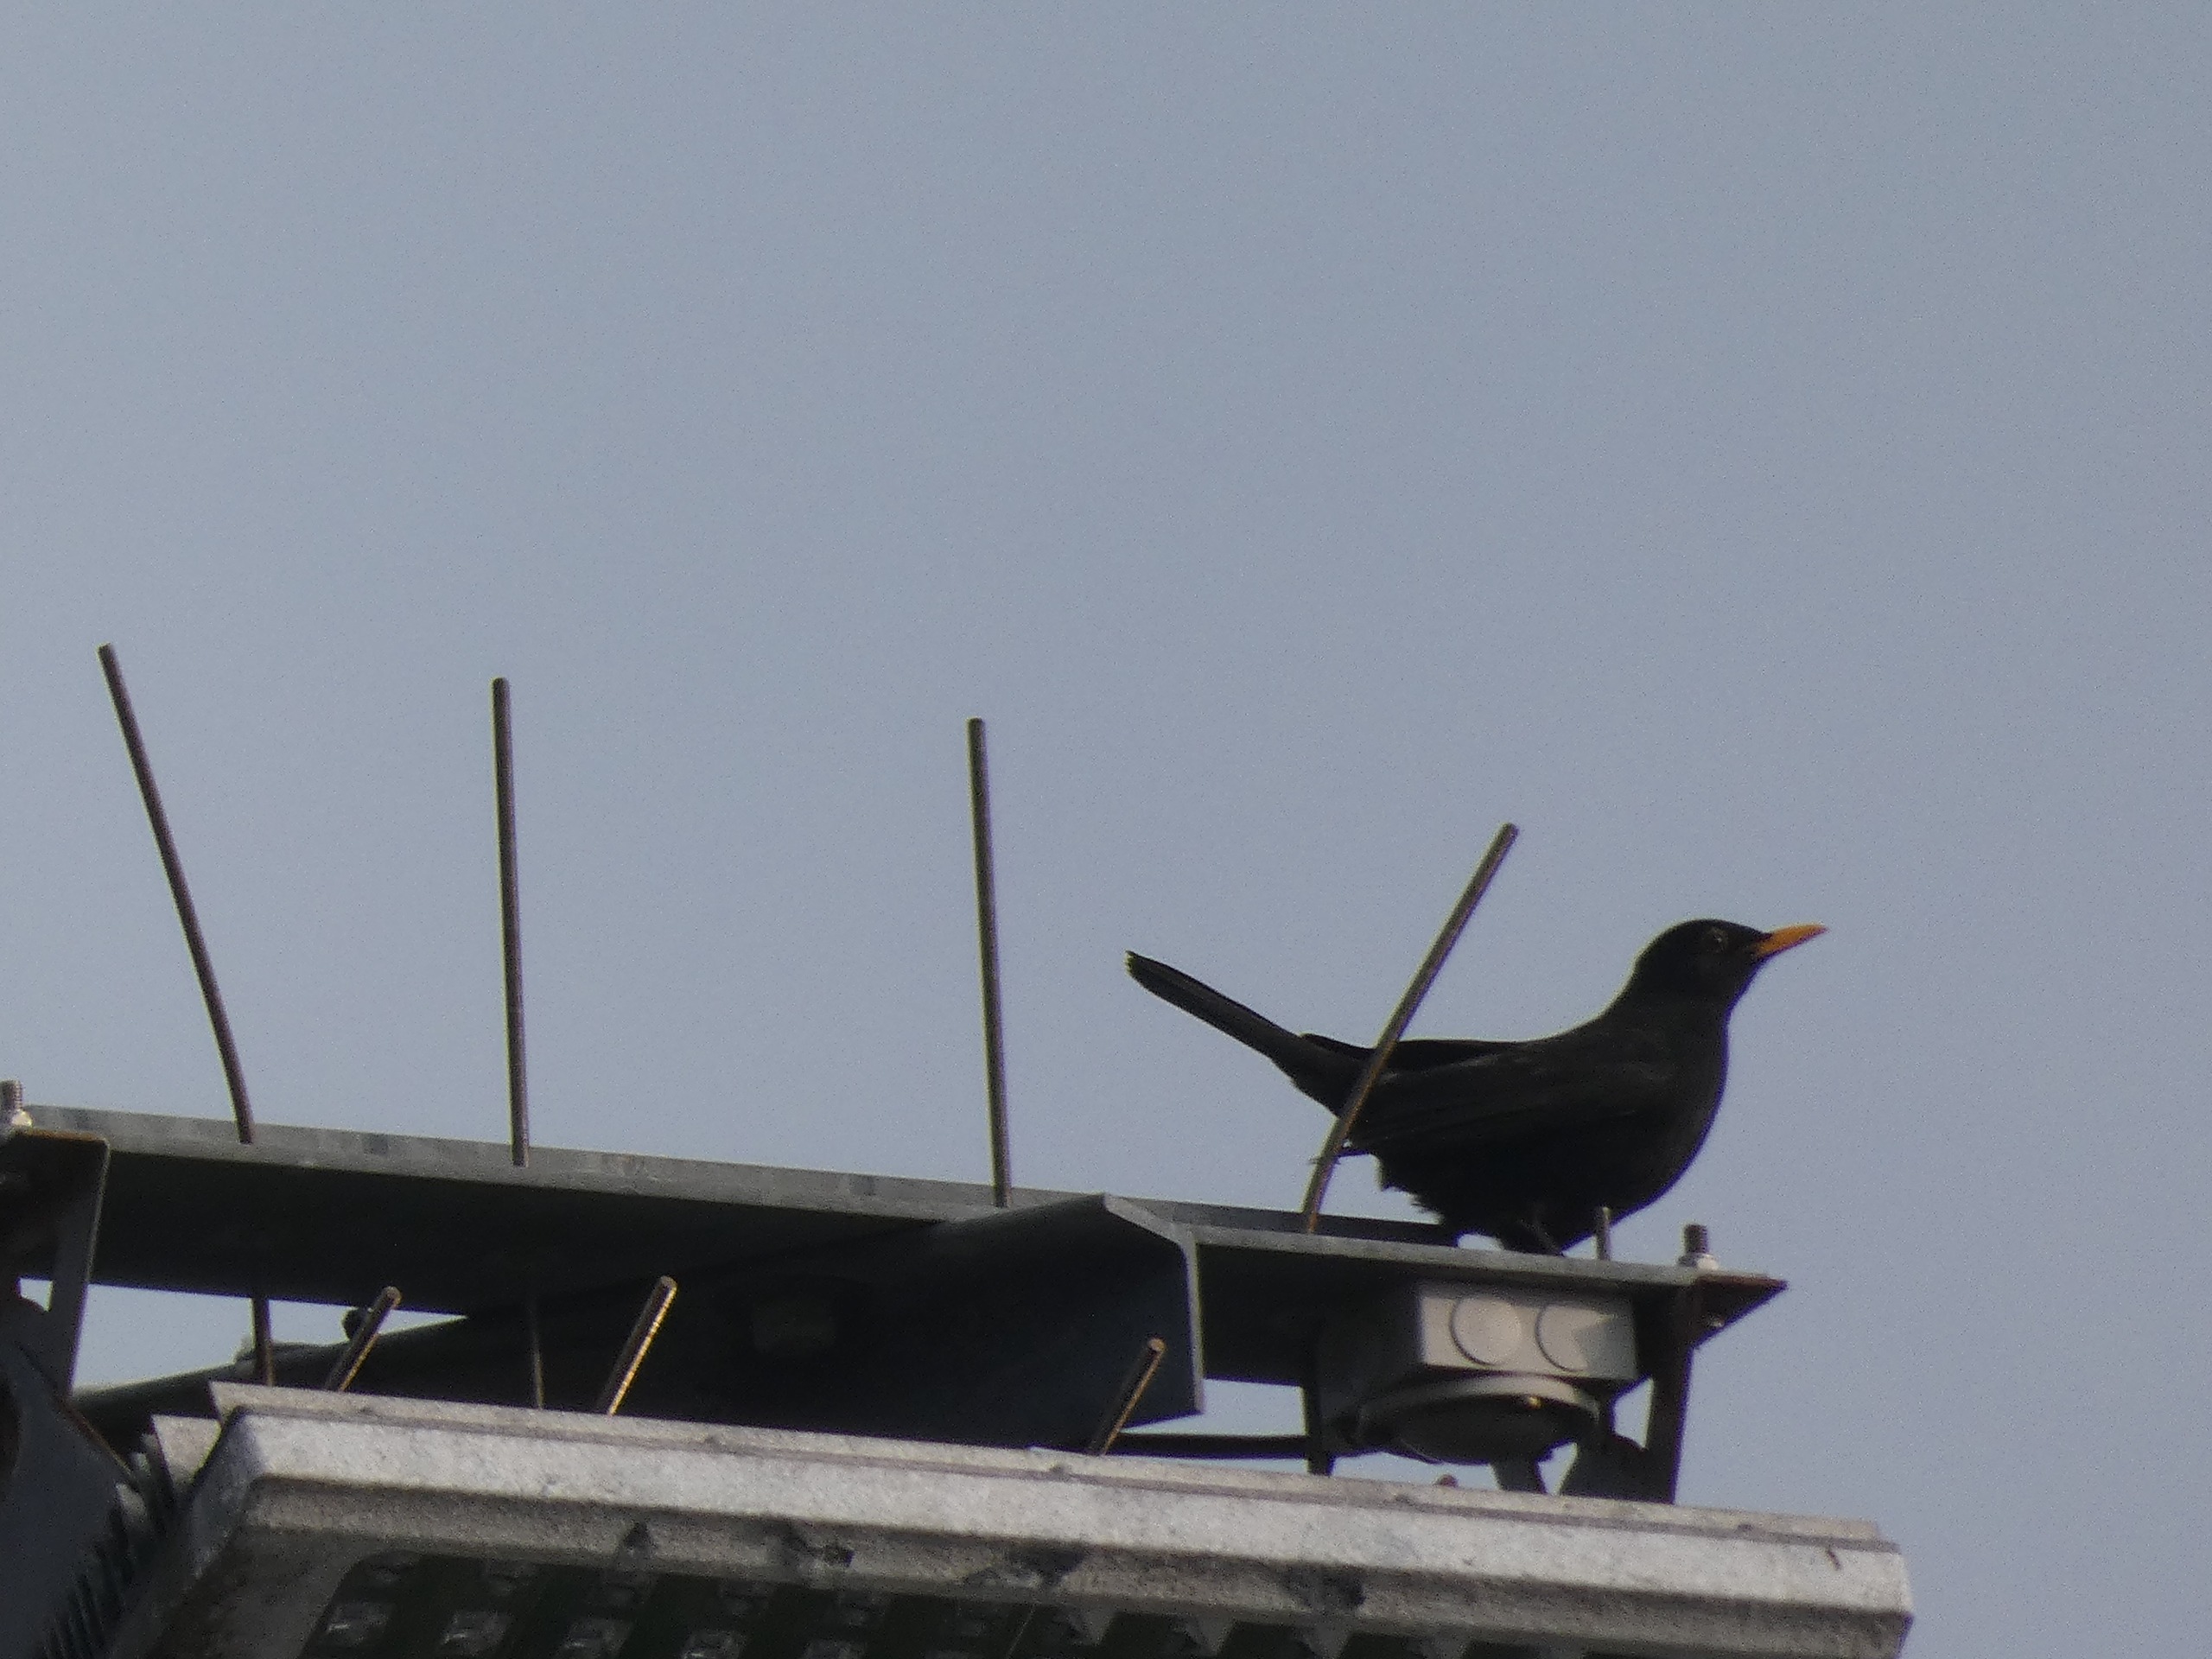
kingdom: Animalia
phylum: Chordata
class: Aves
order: Passeriformes
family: Turdidae
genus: Turdus
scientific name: Turdus merula
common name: Solsort
